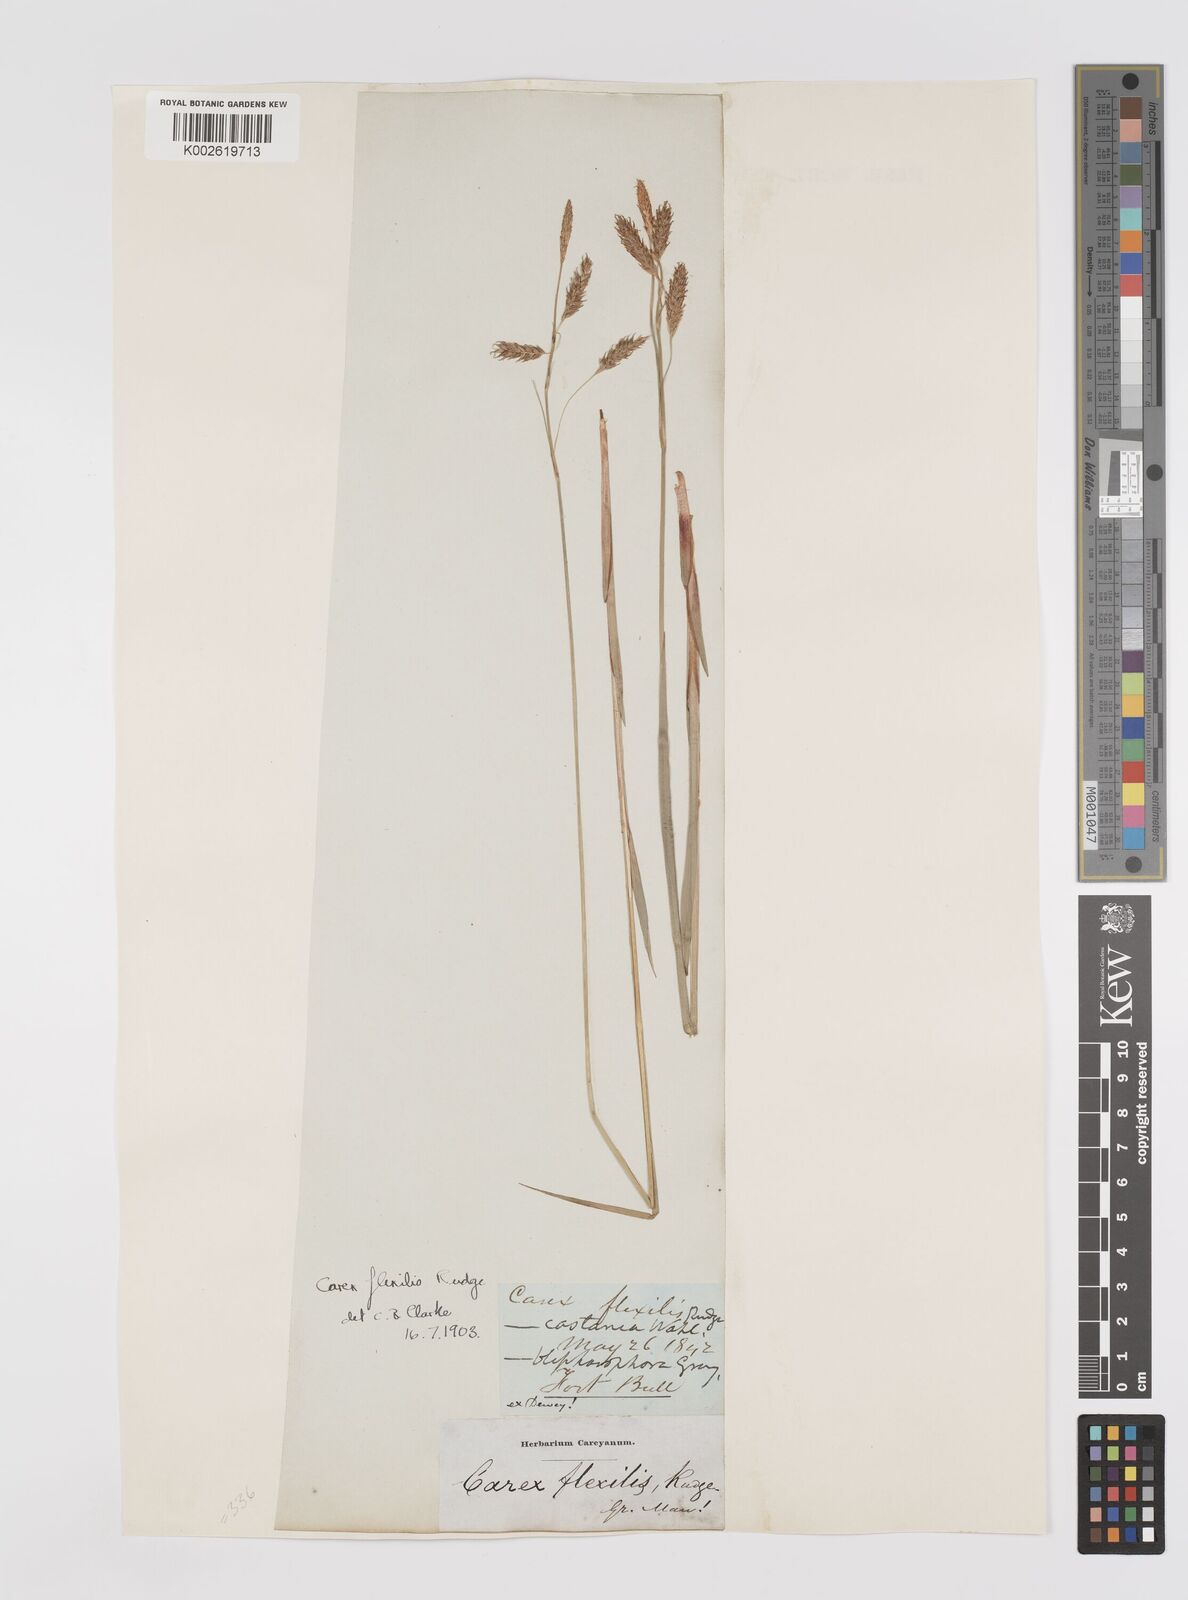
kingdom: Plantae
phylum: Tracheophyta
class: Liliopsida
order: Poales
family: Cyperaceae
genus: Carex
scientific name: Carex castanea
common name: Chestnut sedge
